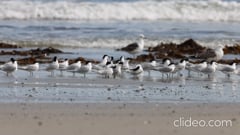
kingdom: Animalia
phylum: Chordata
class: Aves
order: Charadriiformes
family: Laridae
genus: Thalasseus
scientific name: Thalasseus sandvicensis
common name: Sandwich tern
